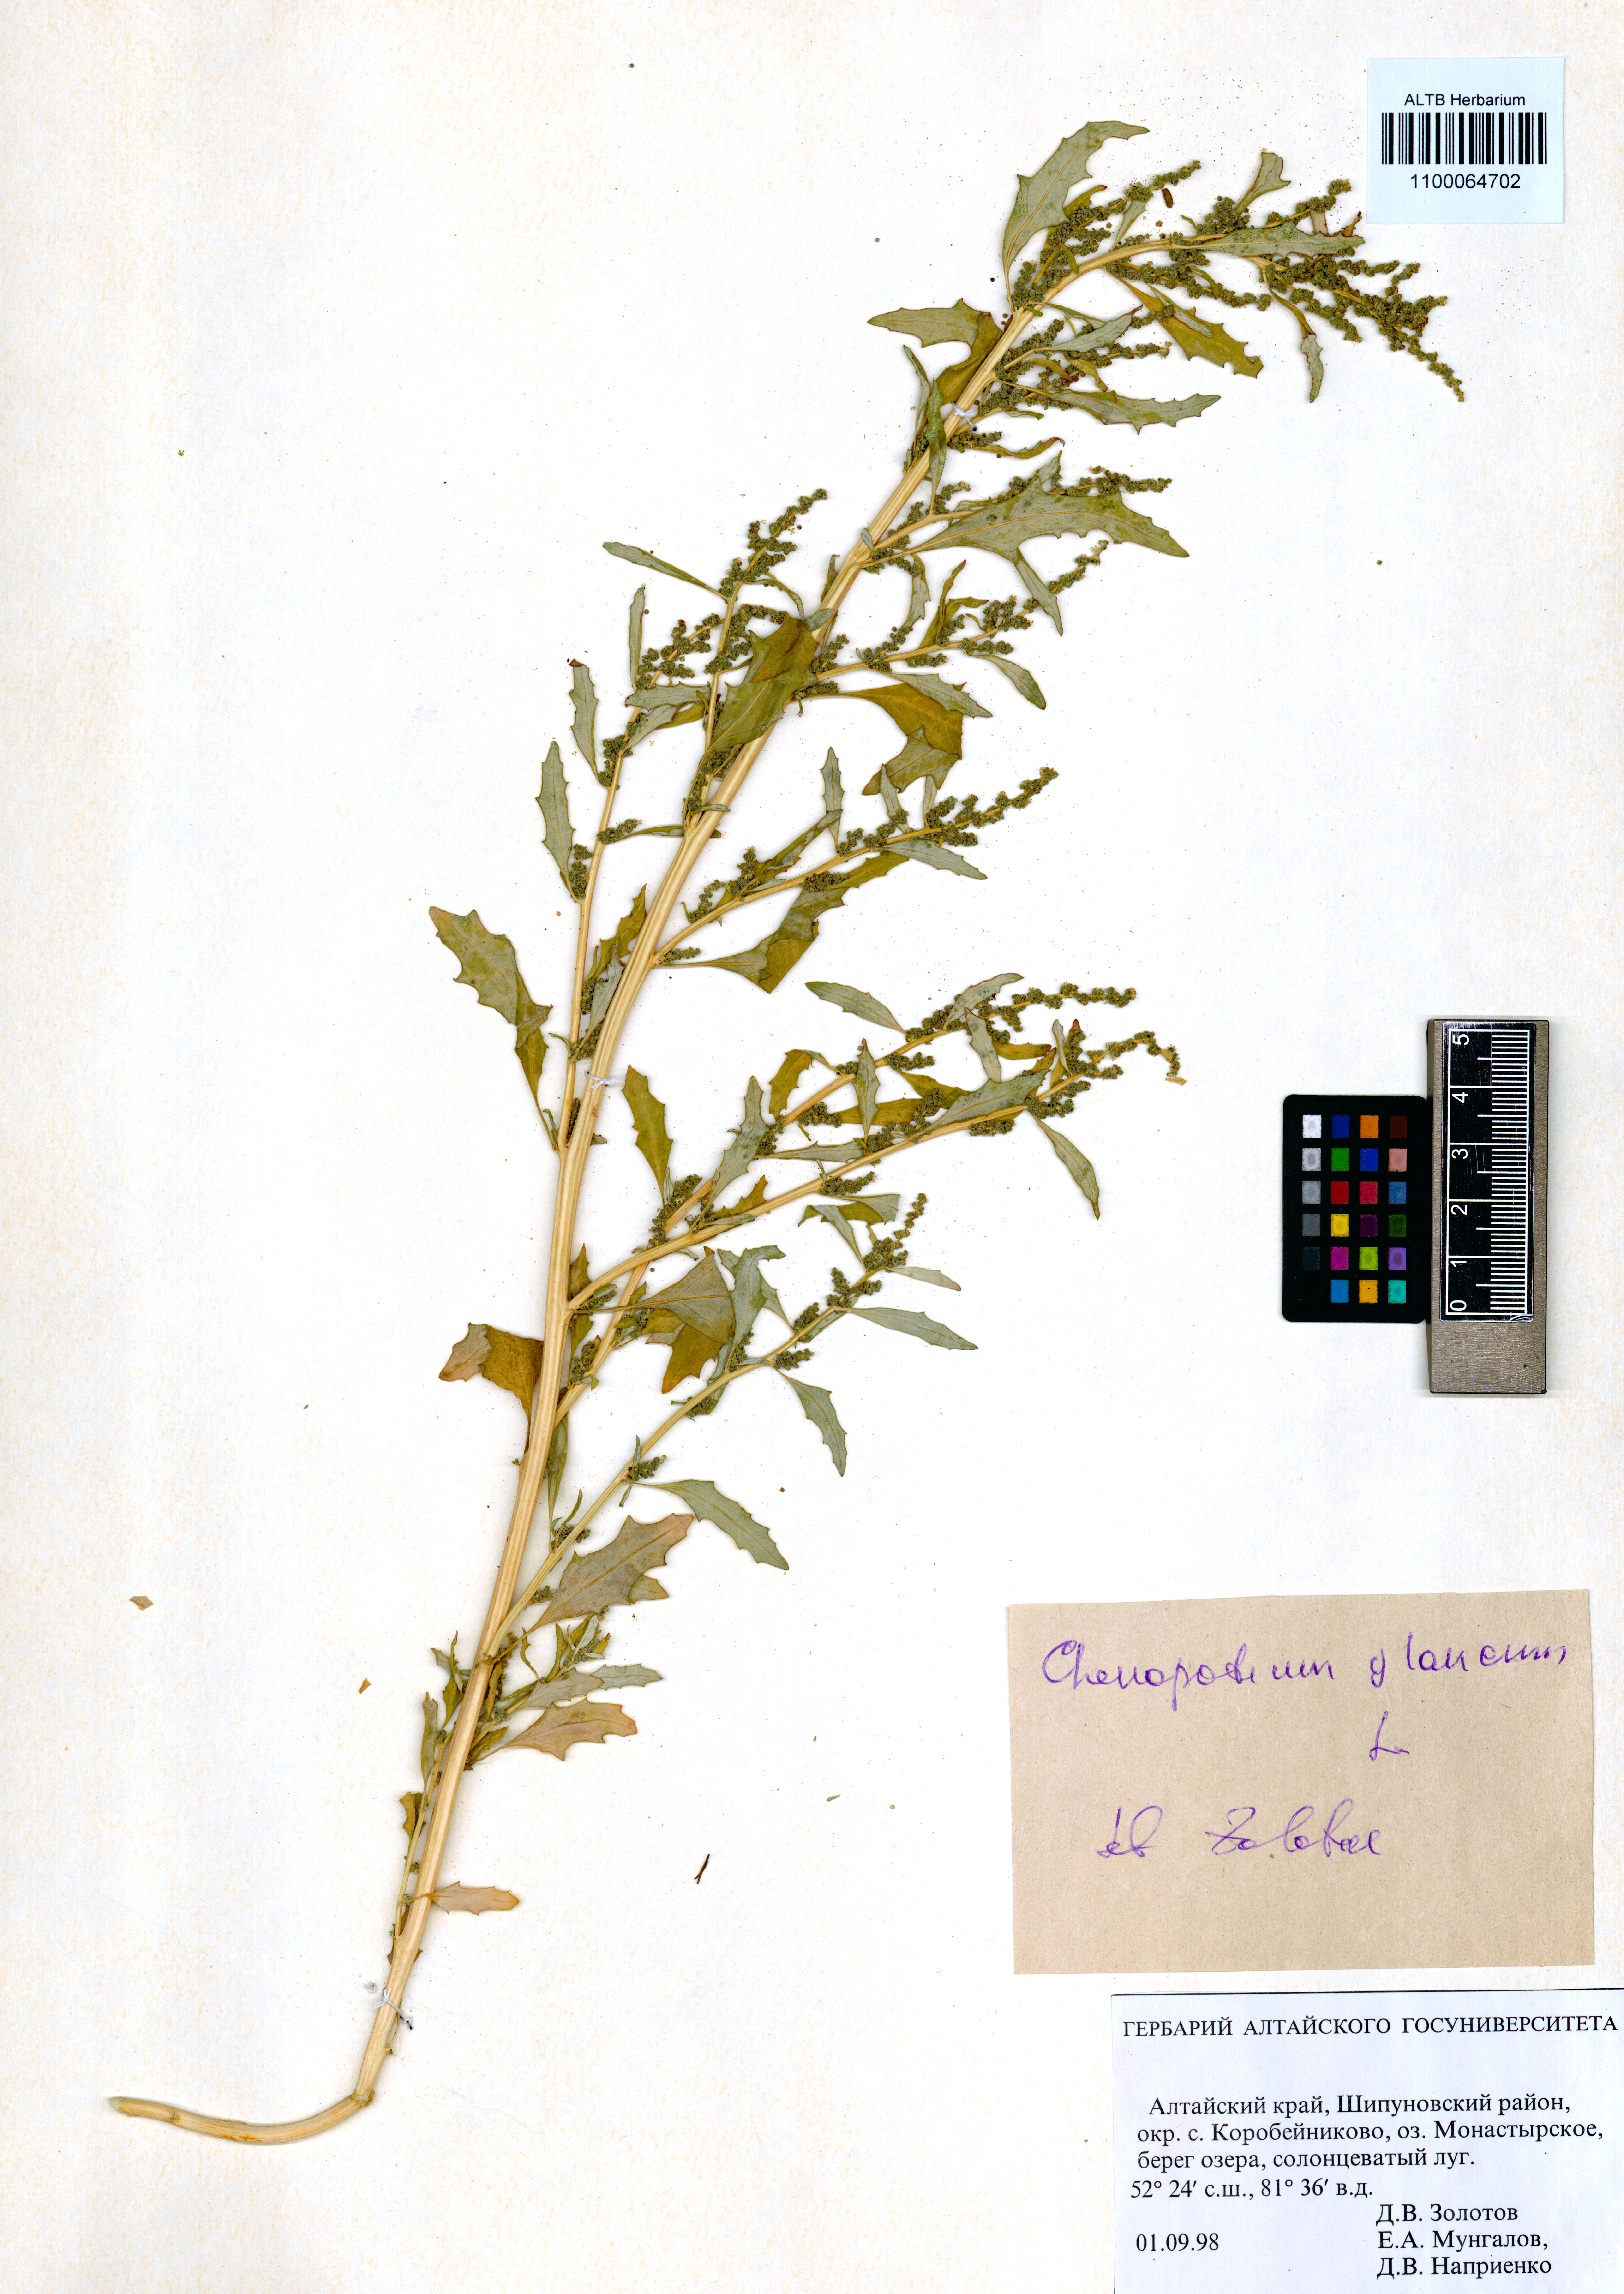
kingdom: Plantae
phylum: Tracheophyta
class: Magnoliopsida
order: Caryophyllales
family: Amaranthaceae
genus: Oxybasis
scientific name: Oxybasis glauca
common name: Glaucous goosefoot
